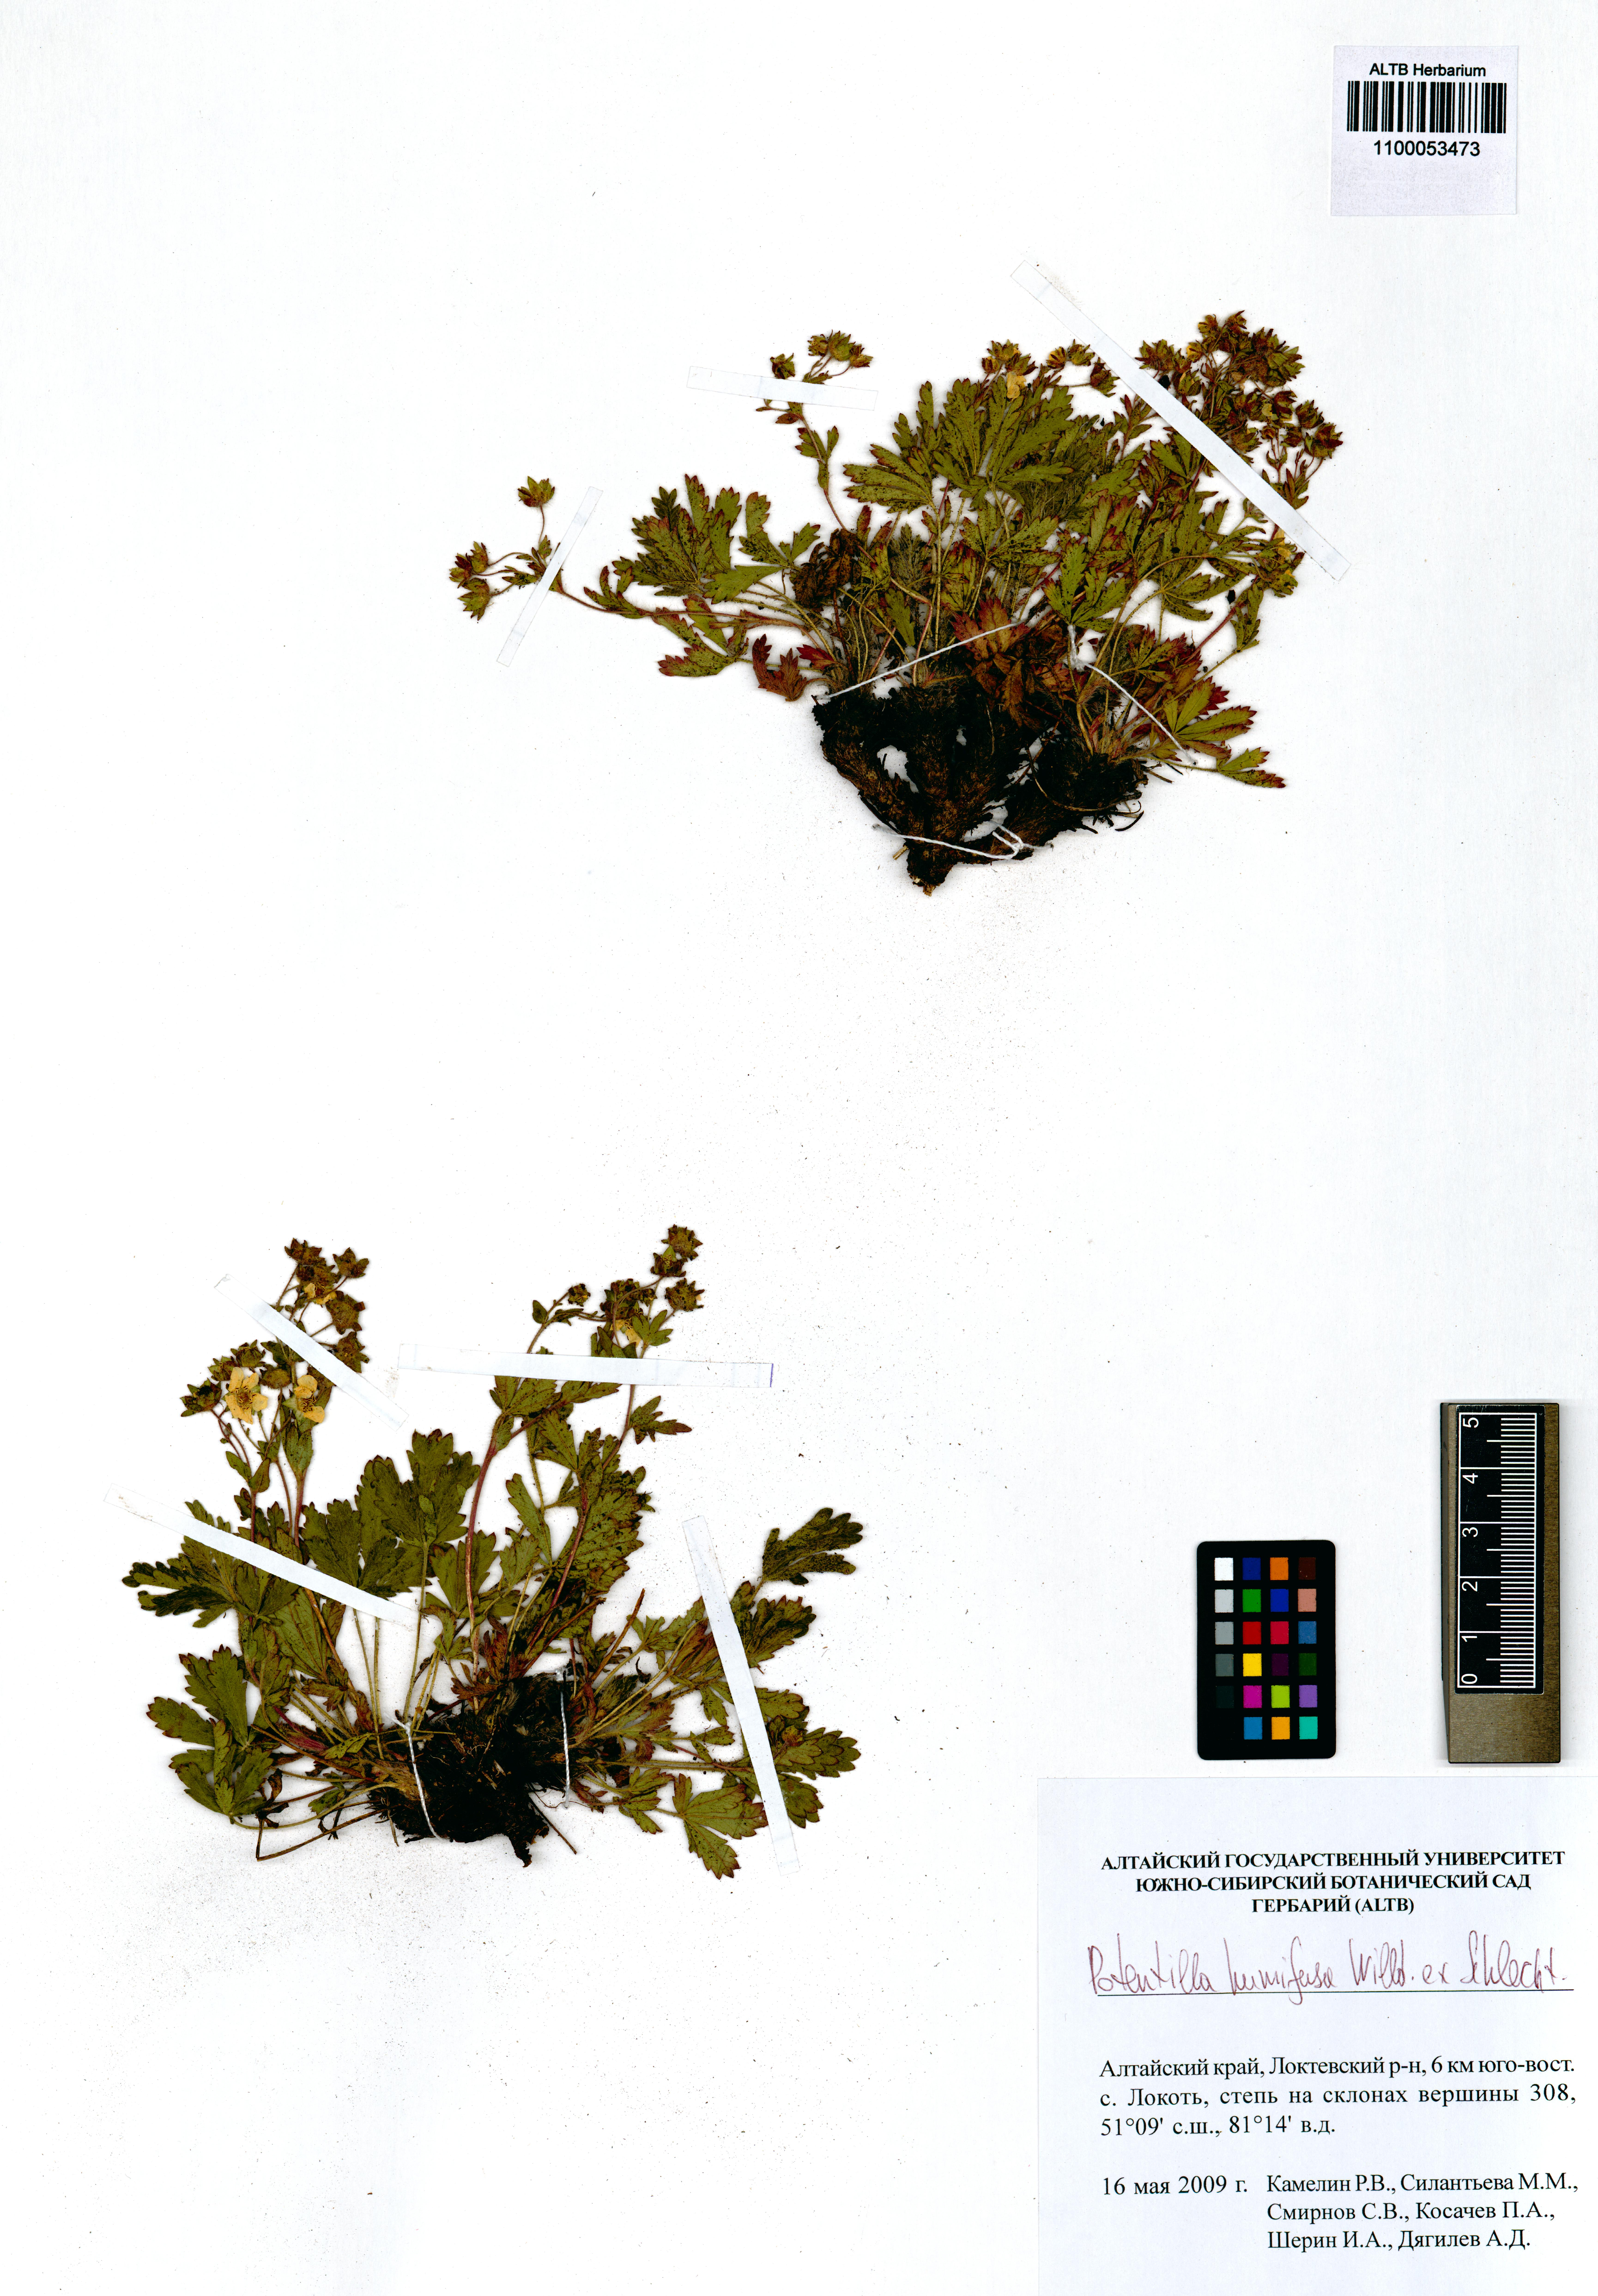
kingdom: Plantae
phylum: Tracheophyta
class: Magnoliopsida
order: Rosales
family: Rosaceae
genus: Potentilla
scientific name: Potentilla humifusa
